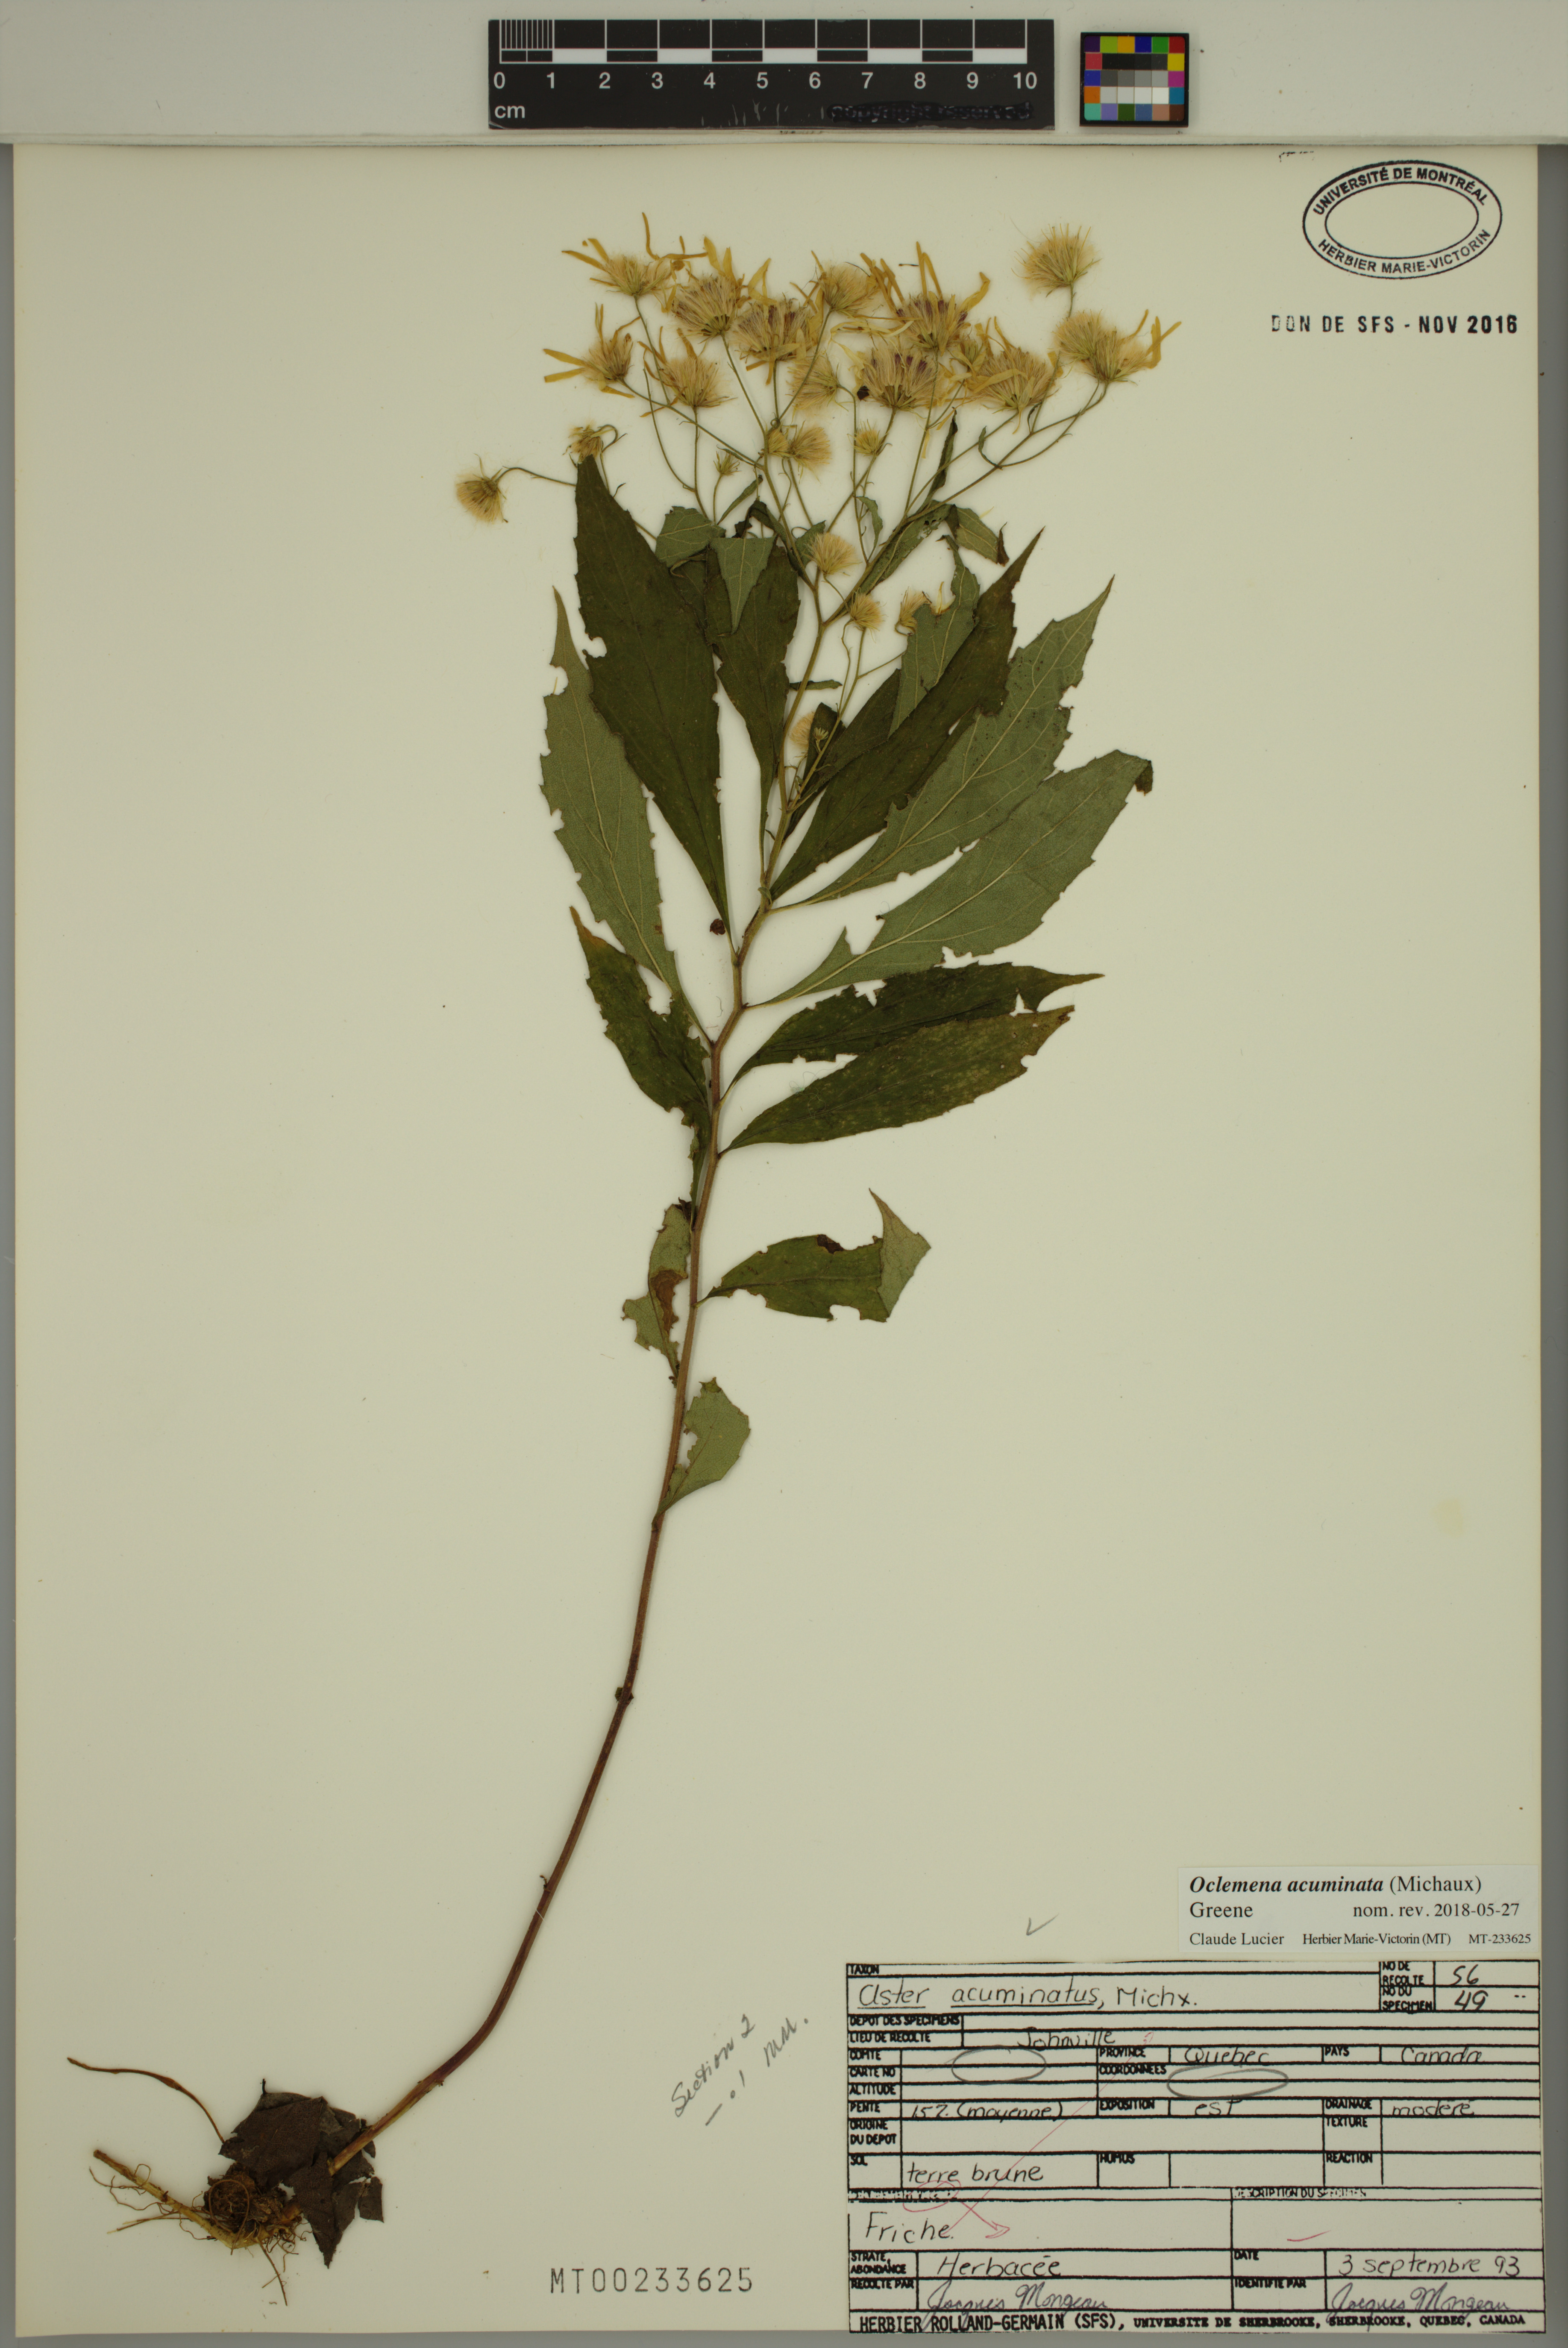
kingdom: Plantae
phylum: Tracheophyta
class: Magnoliopsida
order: Asterales
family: Asteraceae
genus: Oclemena
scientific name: Oclemena acuminata
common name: Mountain aster
